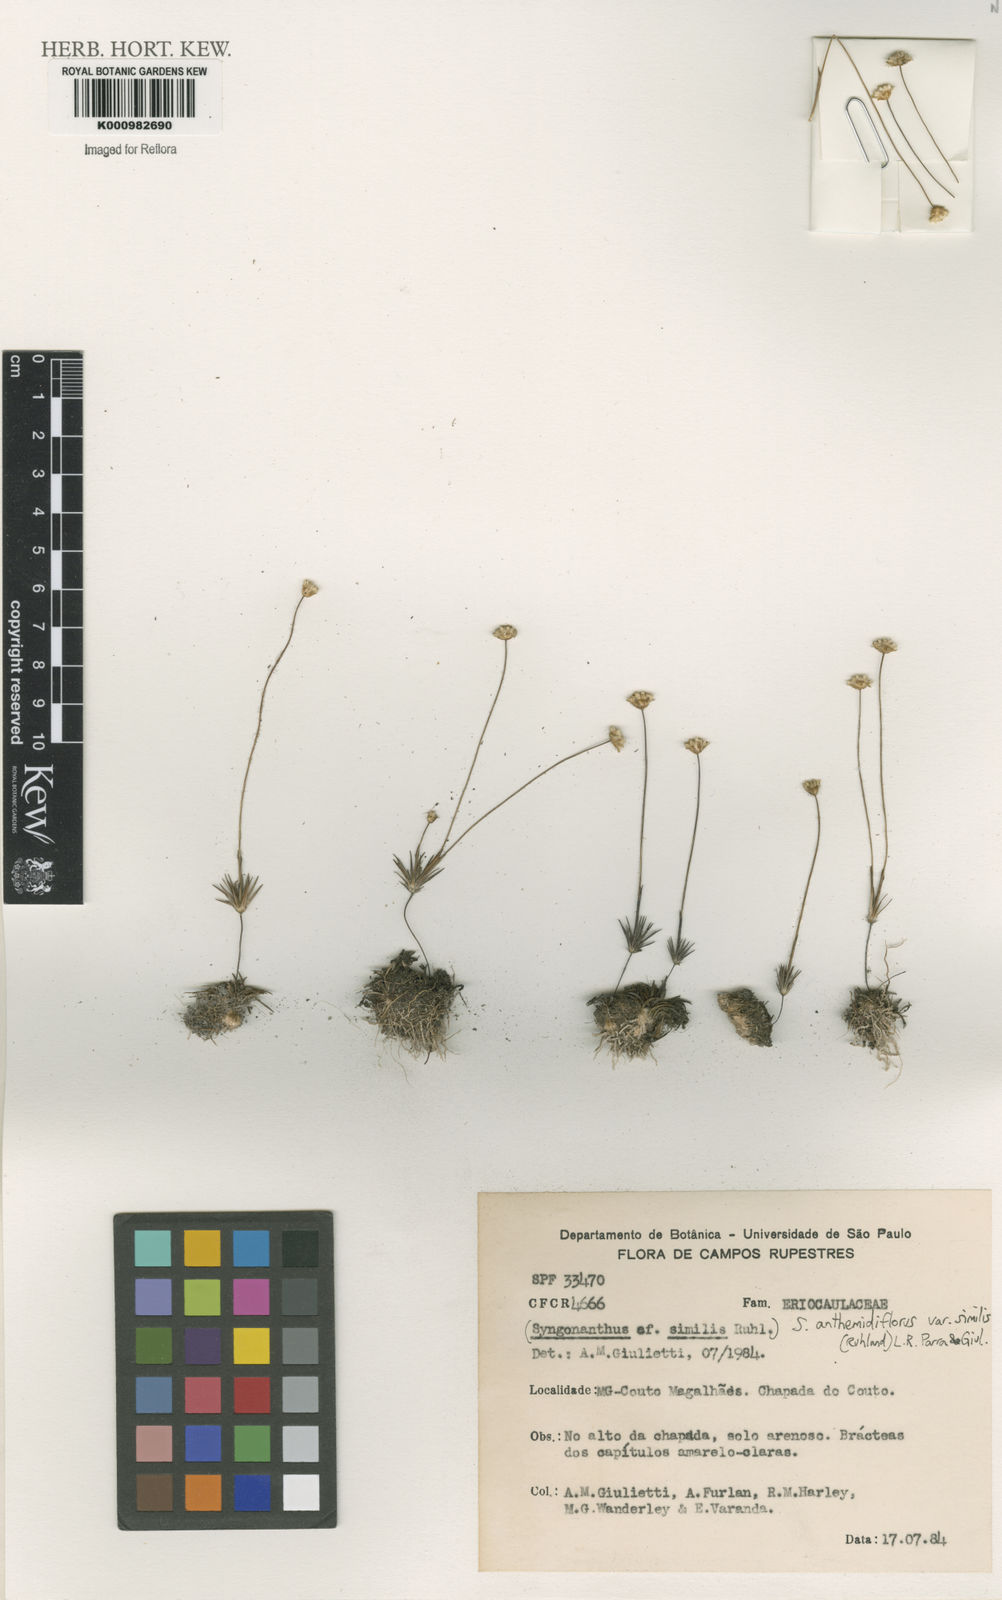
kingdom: Plantae
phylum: Tracheophyta
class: Liliopsida
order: Poales
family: Eriocaulaceae
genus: Syngonanthus
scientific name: Syngonanthus anthemidiflorus
